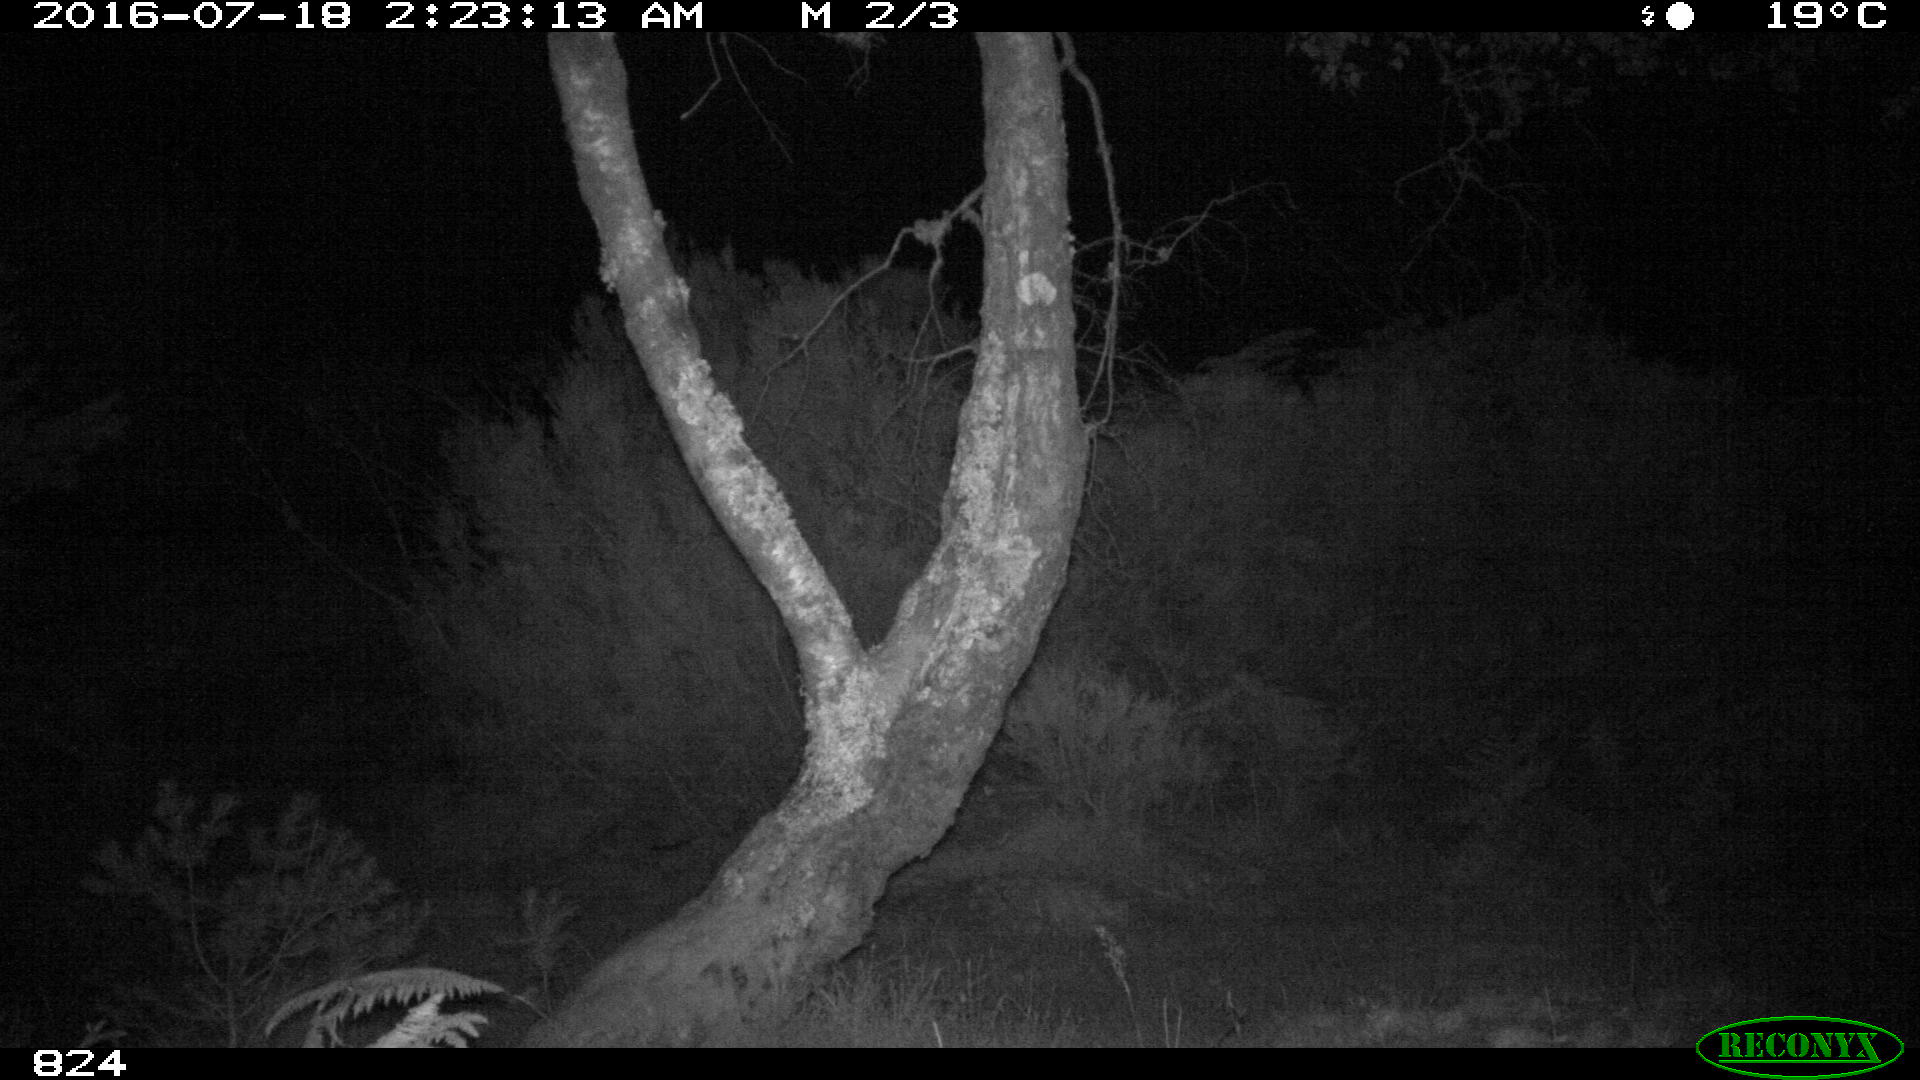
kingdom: Animalia
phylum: Chordata
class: Mammalia
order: Artiodactyla
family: Suidae
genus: Sus
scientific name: Sus scrofa
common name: Wild boar
